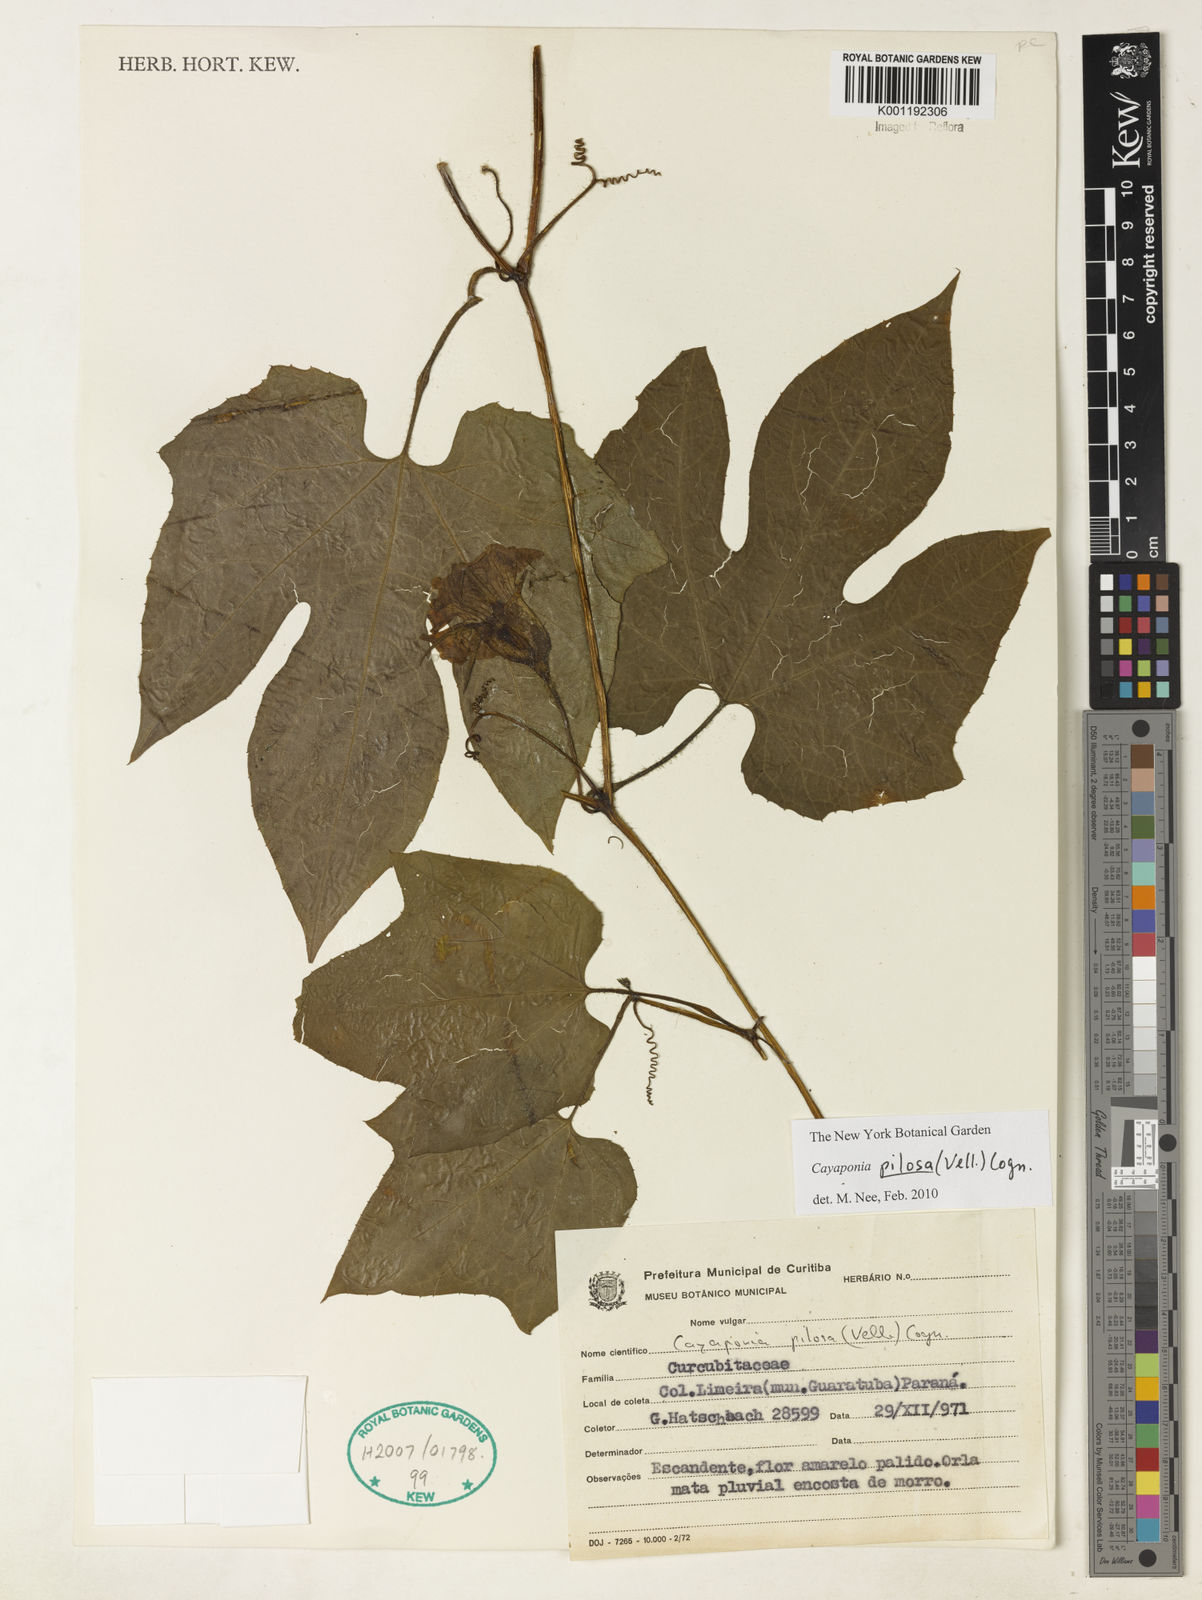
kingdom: Plantae
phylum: Tracheophyta
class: Magnoliopsida
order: Cucurbitales
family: Cucurbitaceae
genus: Cayaponia
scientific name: Cayaponia pilosa
